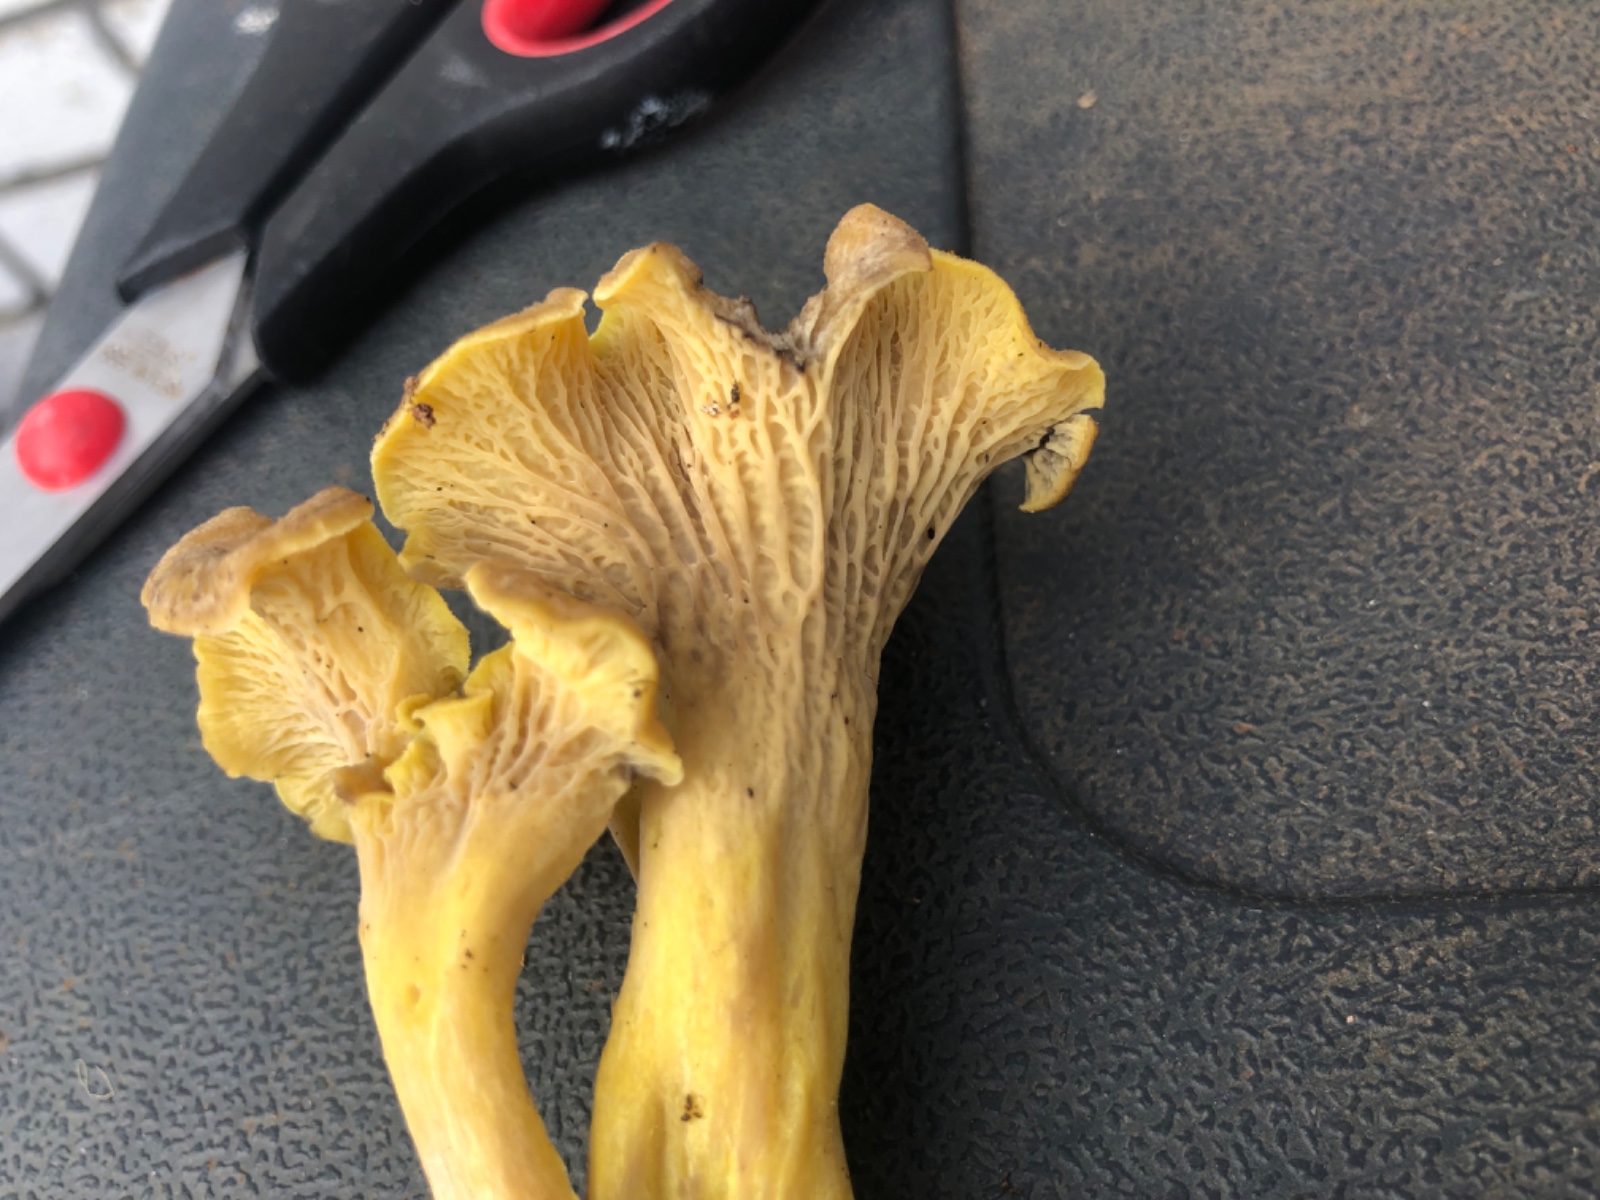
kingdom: Fungi
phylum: Basidiomycota
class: Agaricomycetes
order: Cantharellales
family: Hydnaceae
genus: Cantharellus
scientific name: Cantharellus melanoxeros
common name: sværtende kantarel
